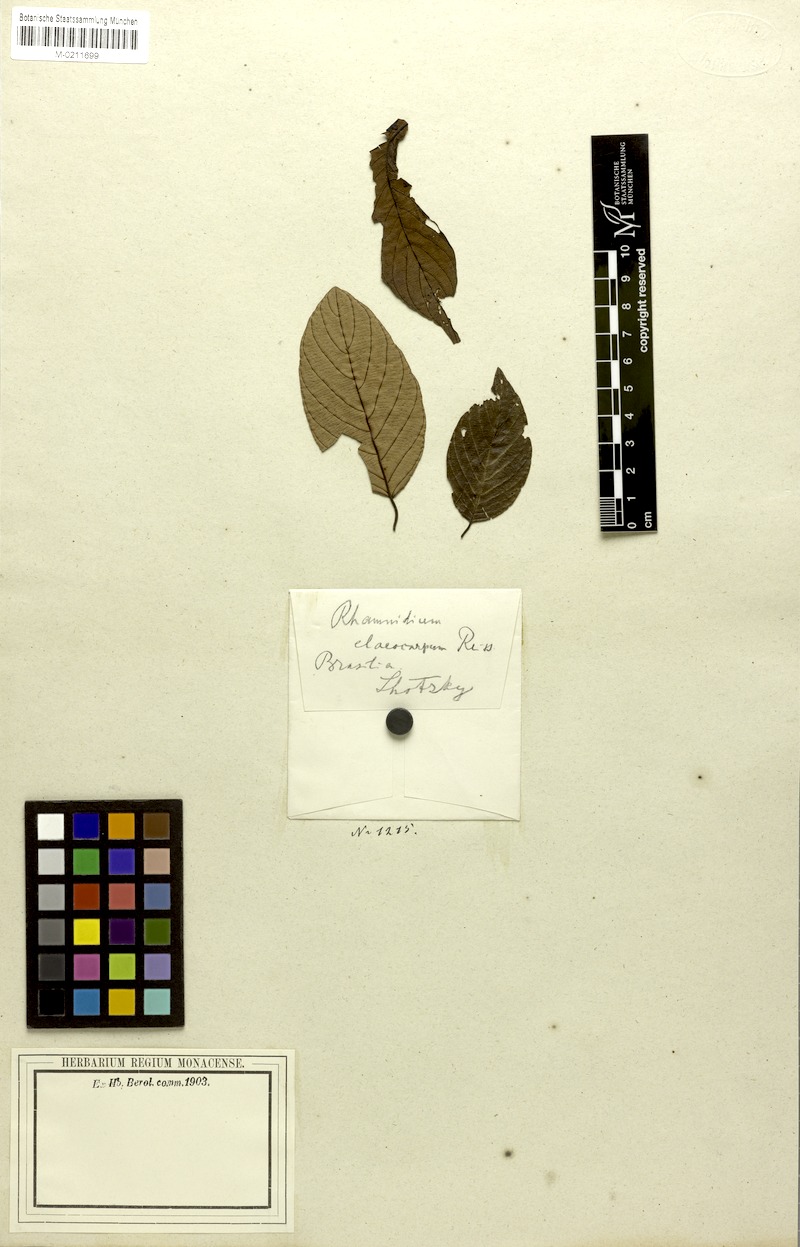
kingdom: Plantae
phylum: Tracheophyta
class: Magnoliopsida
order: Rosales
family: Rhamnaceae
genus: Rhamnidium
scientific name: Rhamnidium elaeocarpum
